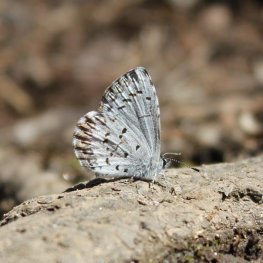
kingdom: Animalia
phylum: Arthropoda
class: Insecta
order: Lepidoptera
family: Lycaenidae
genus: Celastrina
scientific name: Celastrina ladon
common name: Spring Azure
